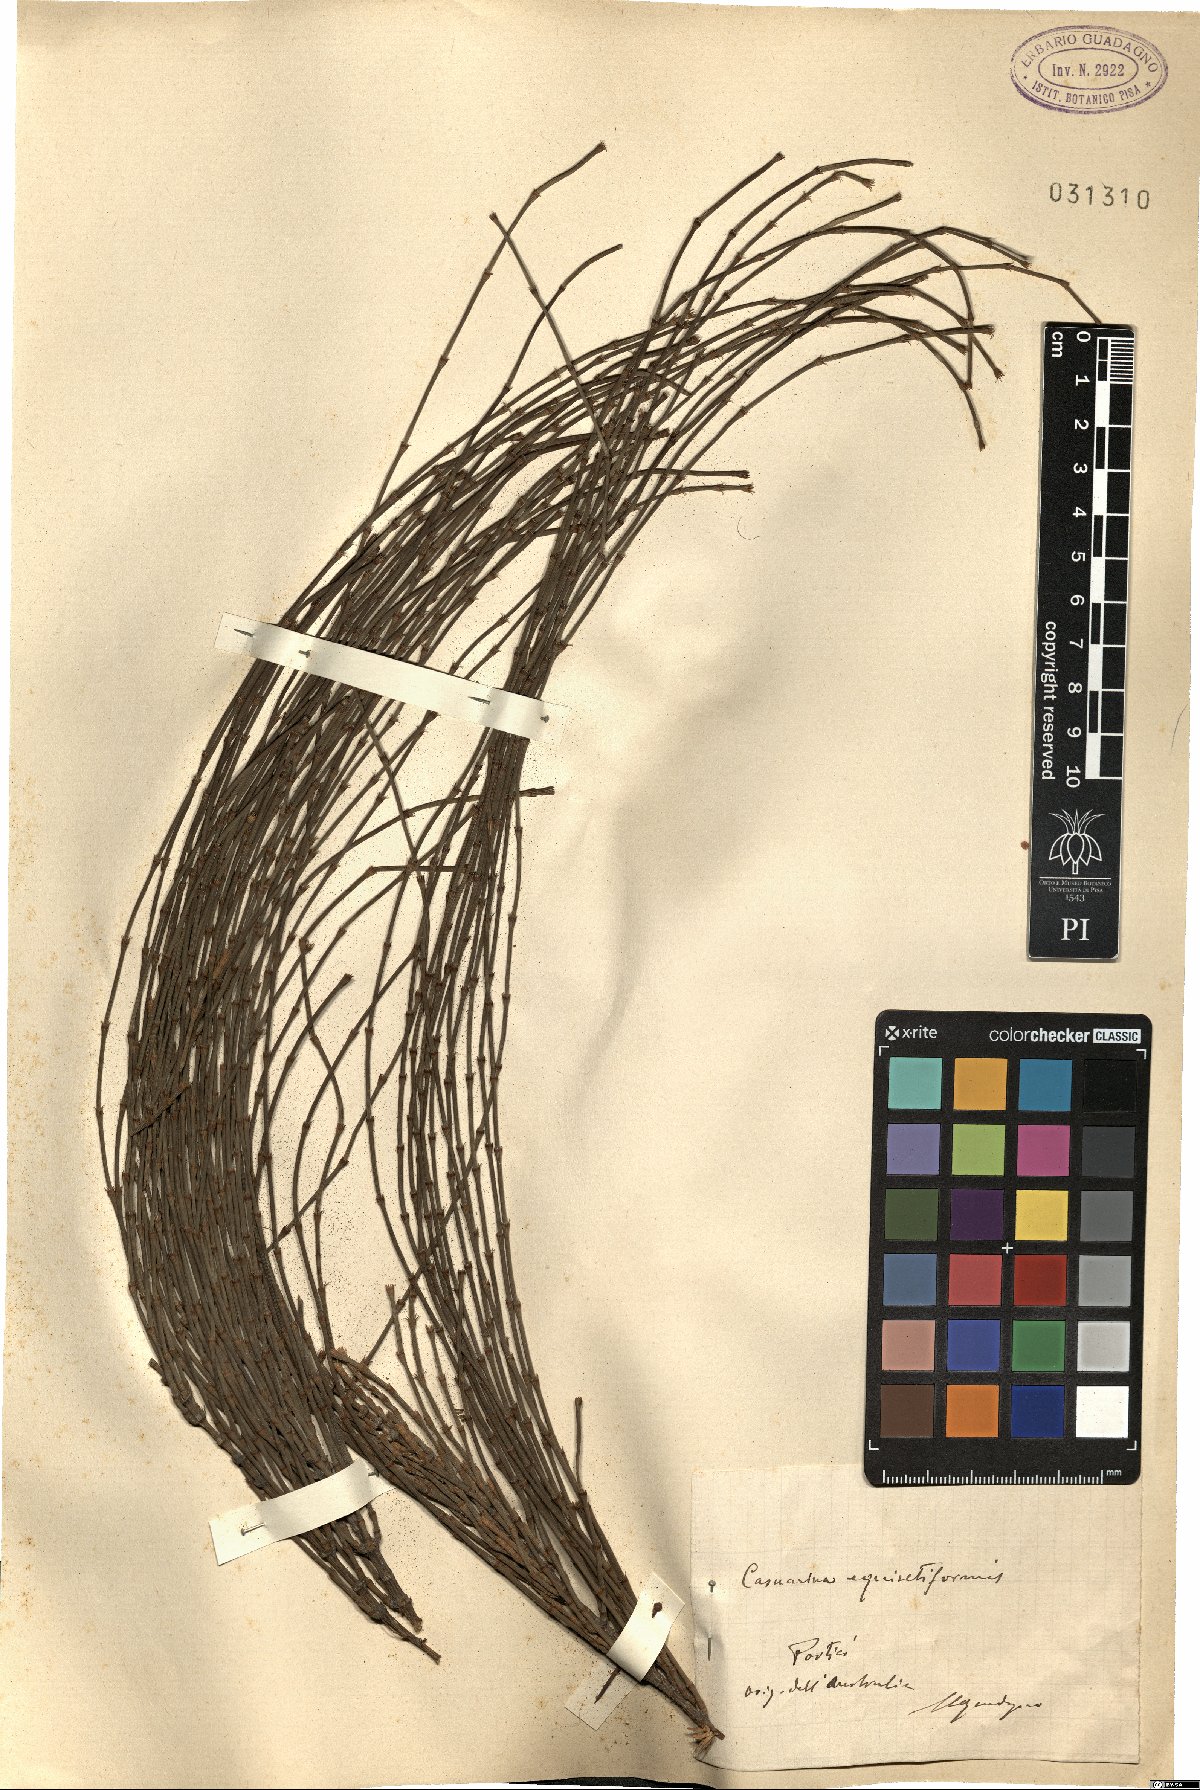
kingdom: Plantae
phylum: Tracheophyta
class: Magnoliopsida
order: Fagales
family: Casuarinaceae
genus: Casuarina
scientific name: Casuarina equisetifolia
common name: Beach sheoak
